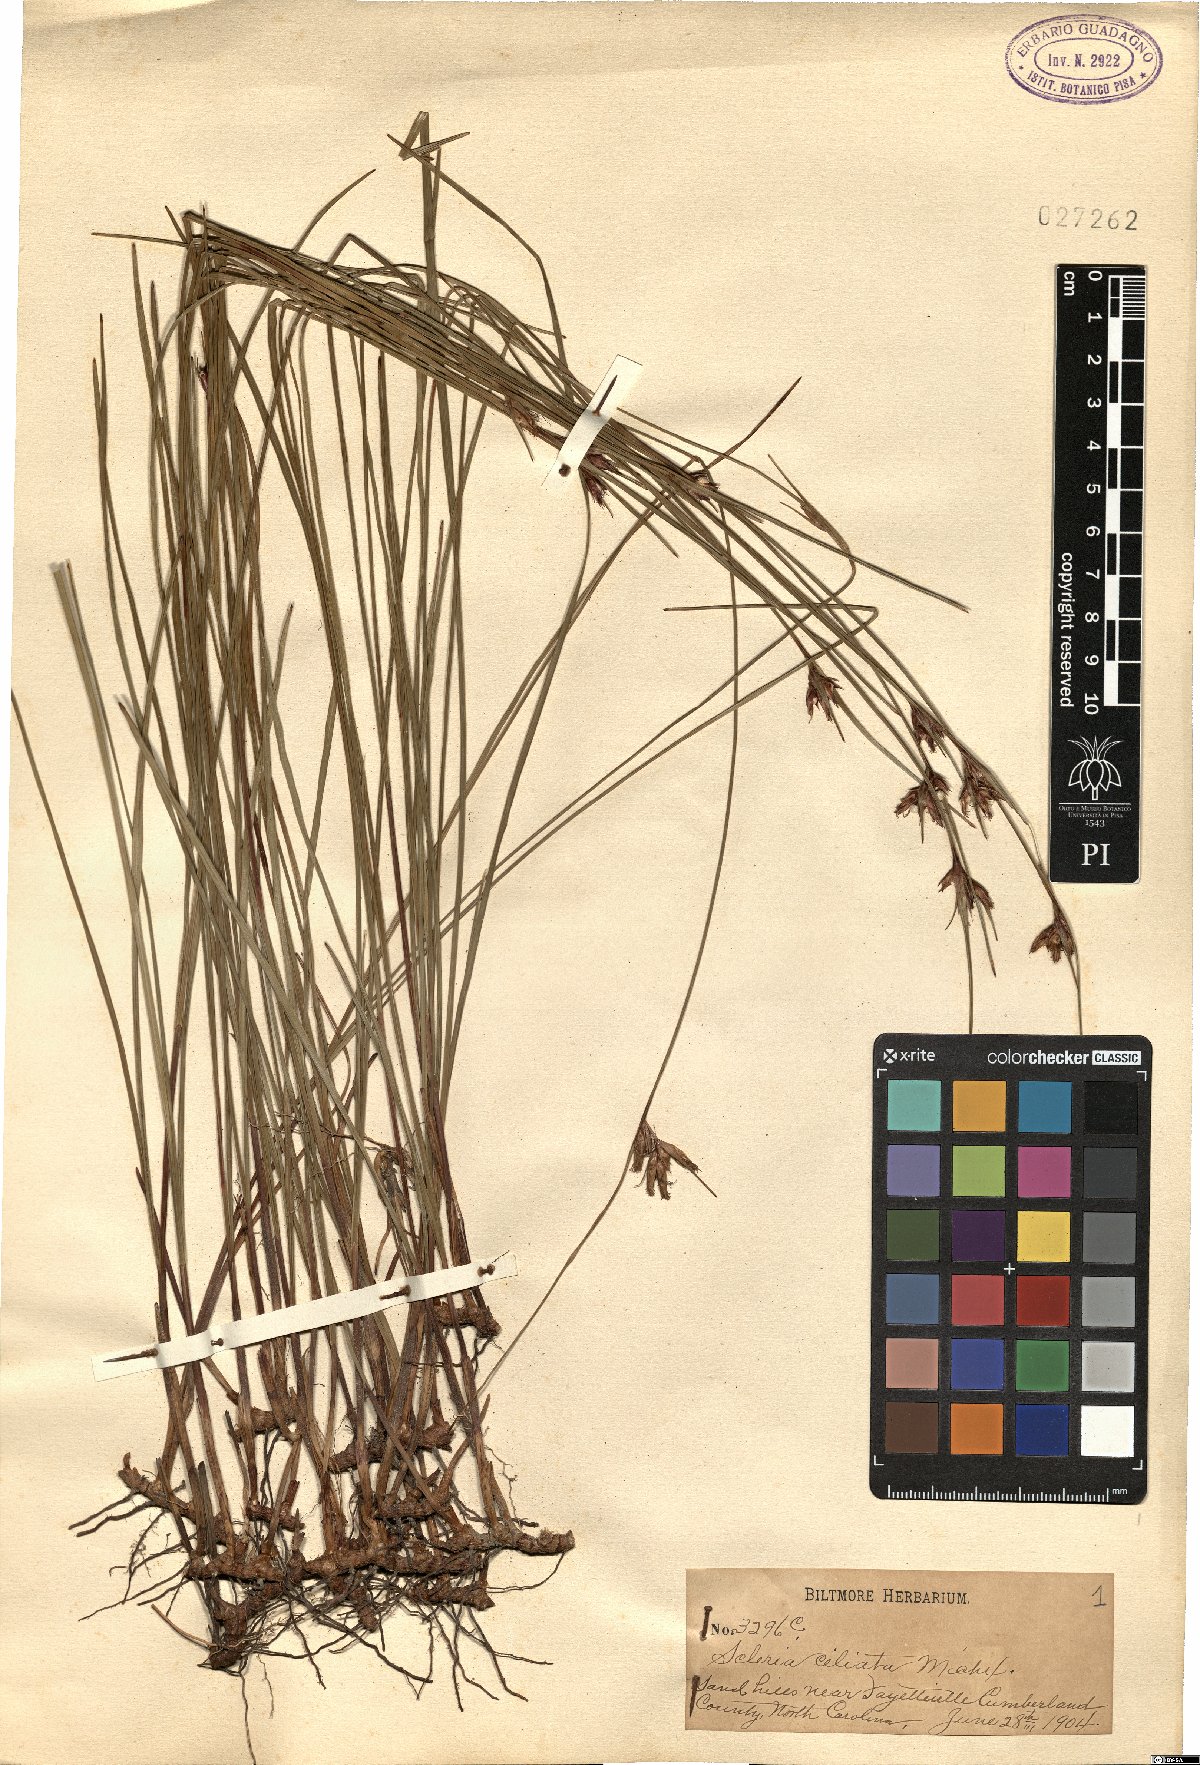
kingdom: Plantae
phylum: Tracheophyta
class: Liliopsida
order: Poales
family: Cyperaceae
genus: Scleria
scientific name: Scleria ciliata
